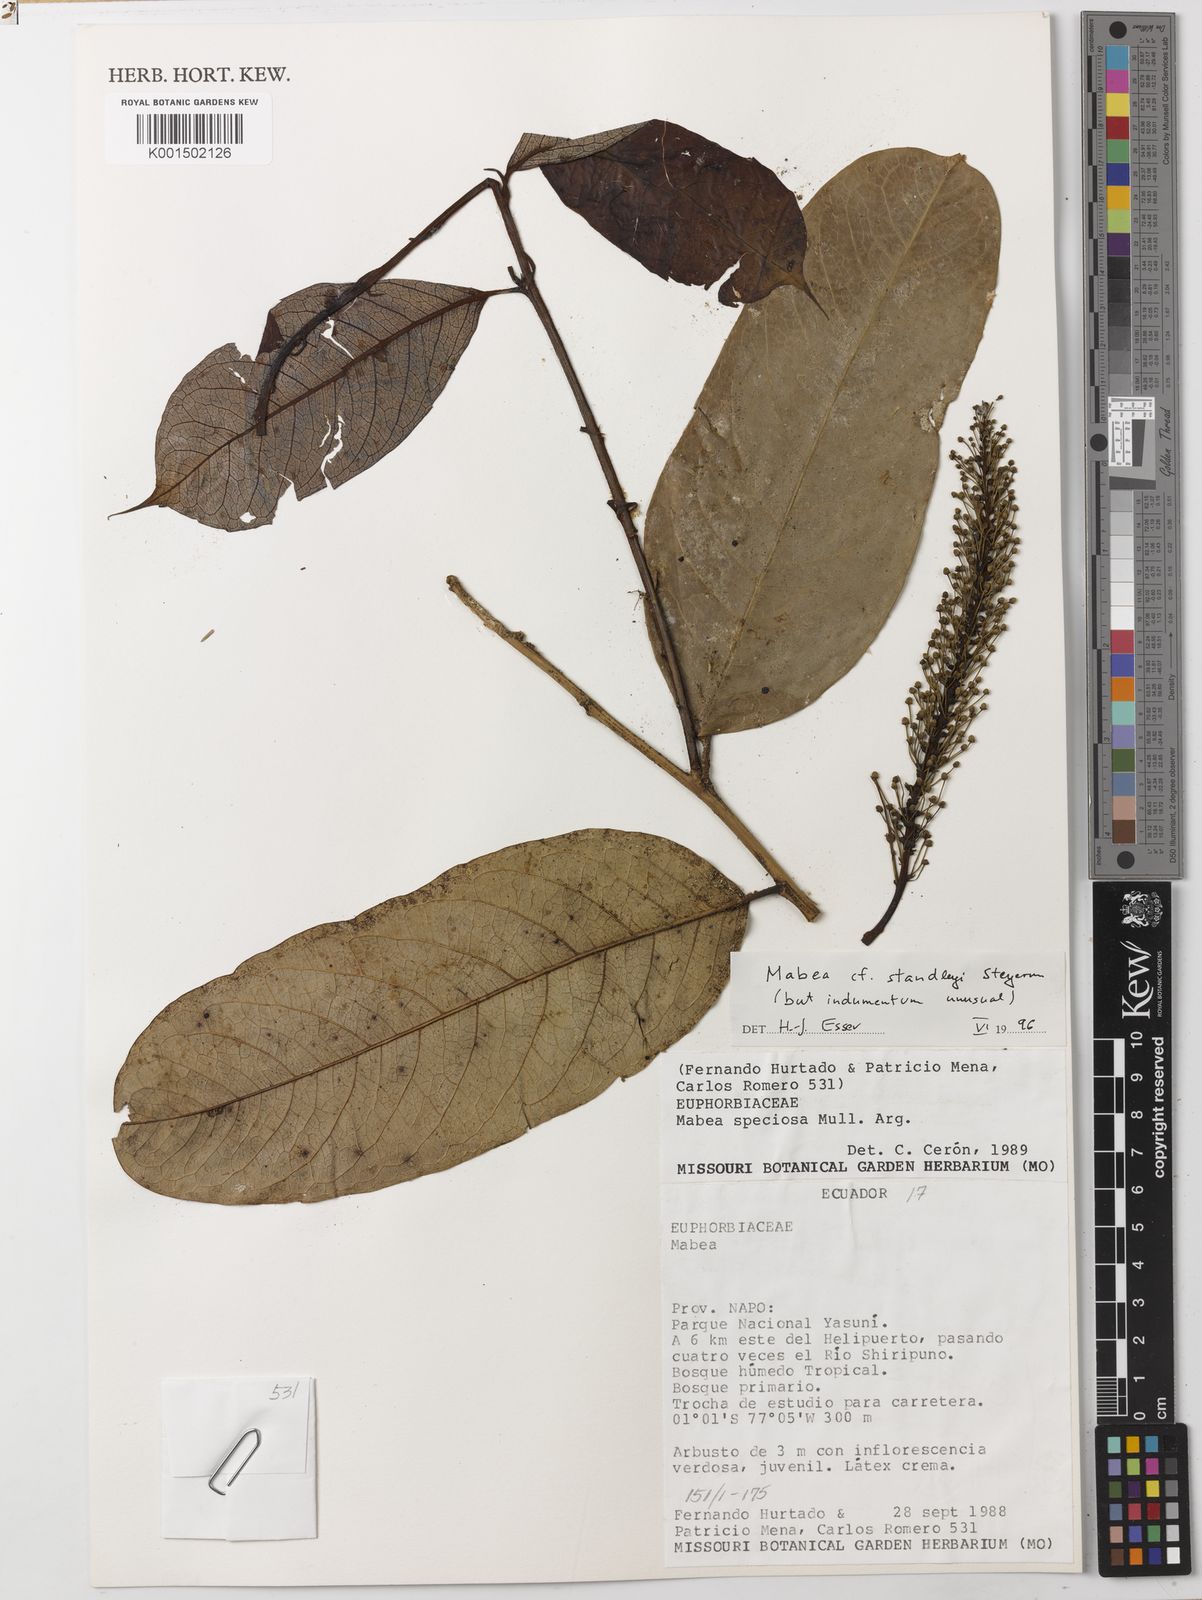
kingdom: Plantae
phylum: Tracheophyta
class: Magnoliopsida
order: Malpighiales
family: Euphorbiaceae
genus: Mabea
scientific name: Mabea standleyi
